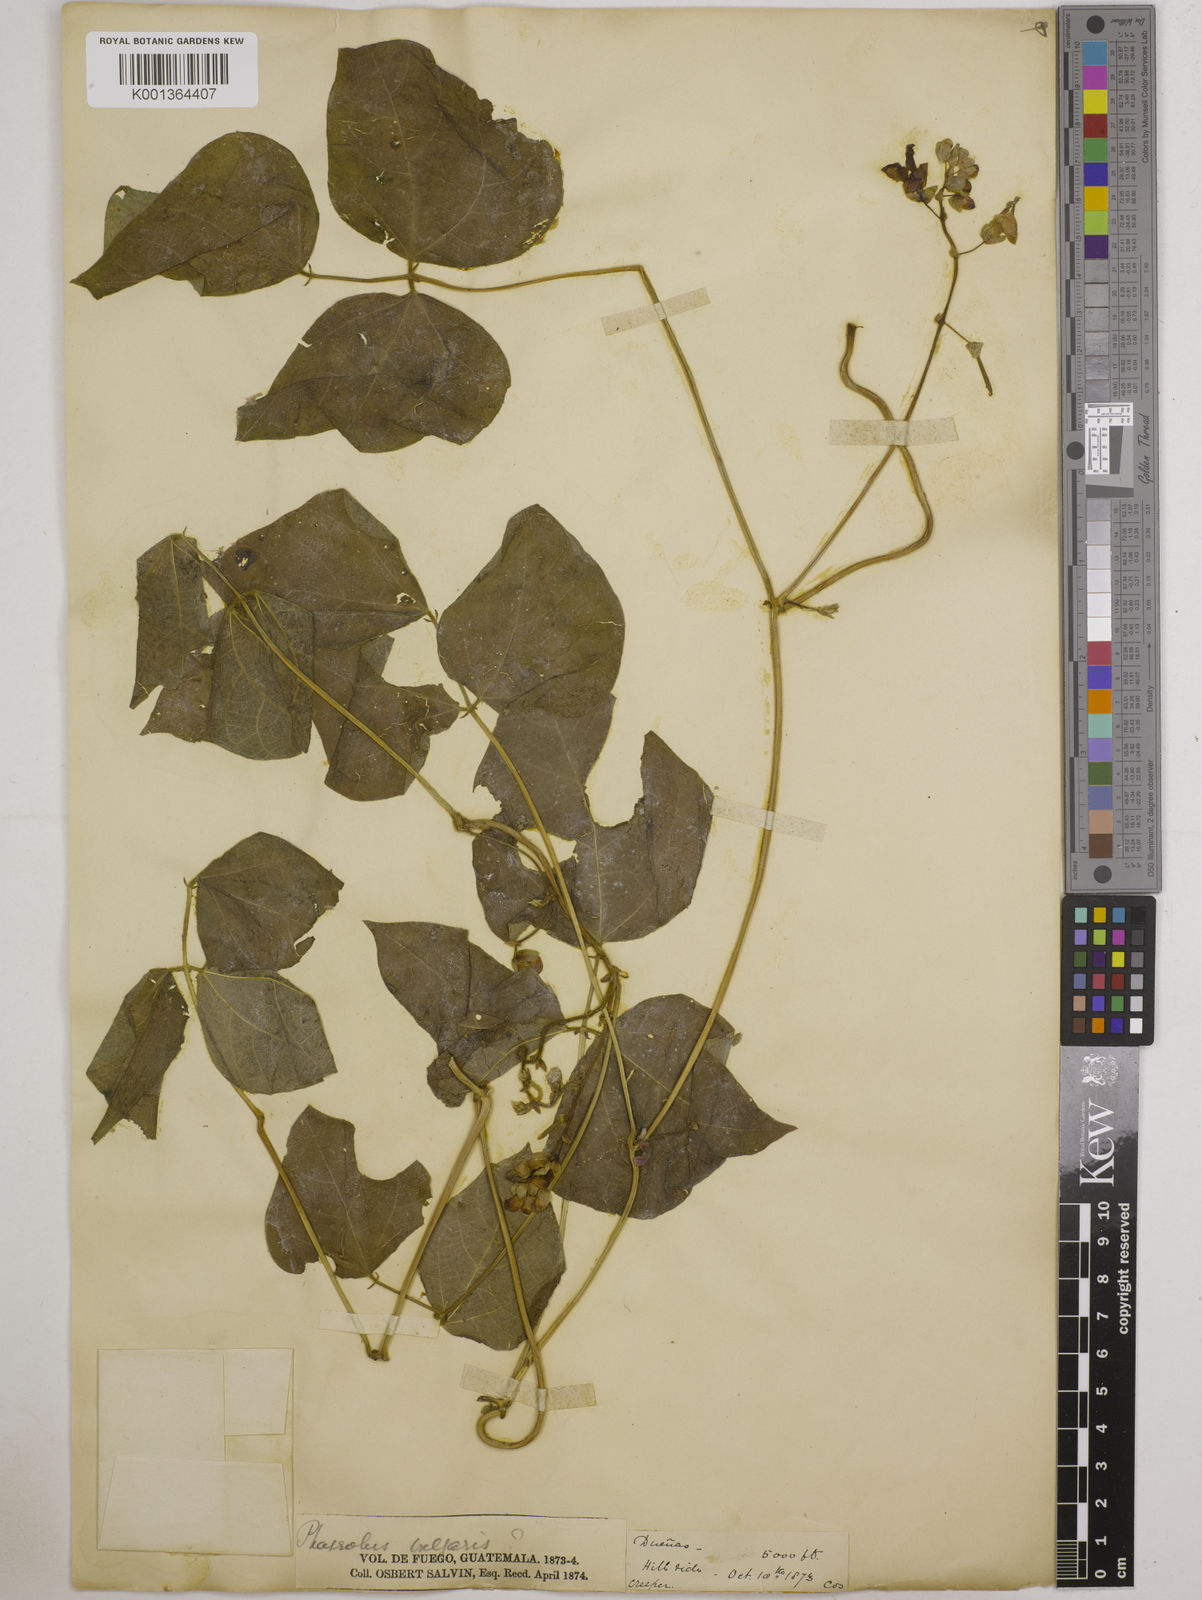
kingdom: Plantae
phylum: Tracheophyta
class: Magnoliopsida
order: Fabales
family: Fabaceae
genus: Phaseolus
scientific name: Phaseolus vulgaris
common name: Bean
